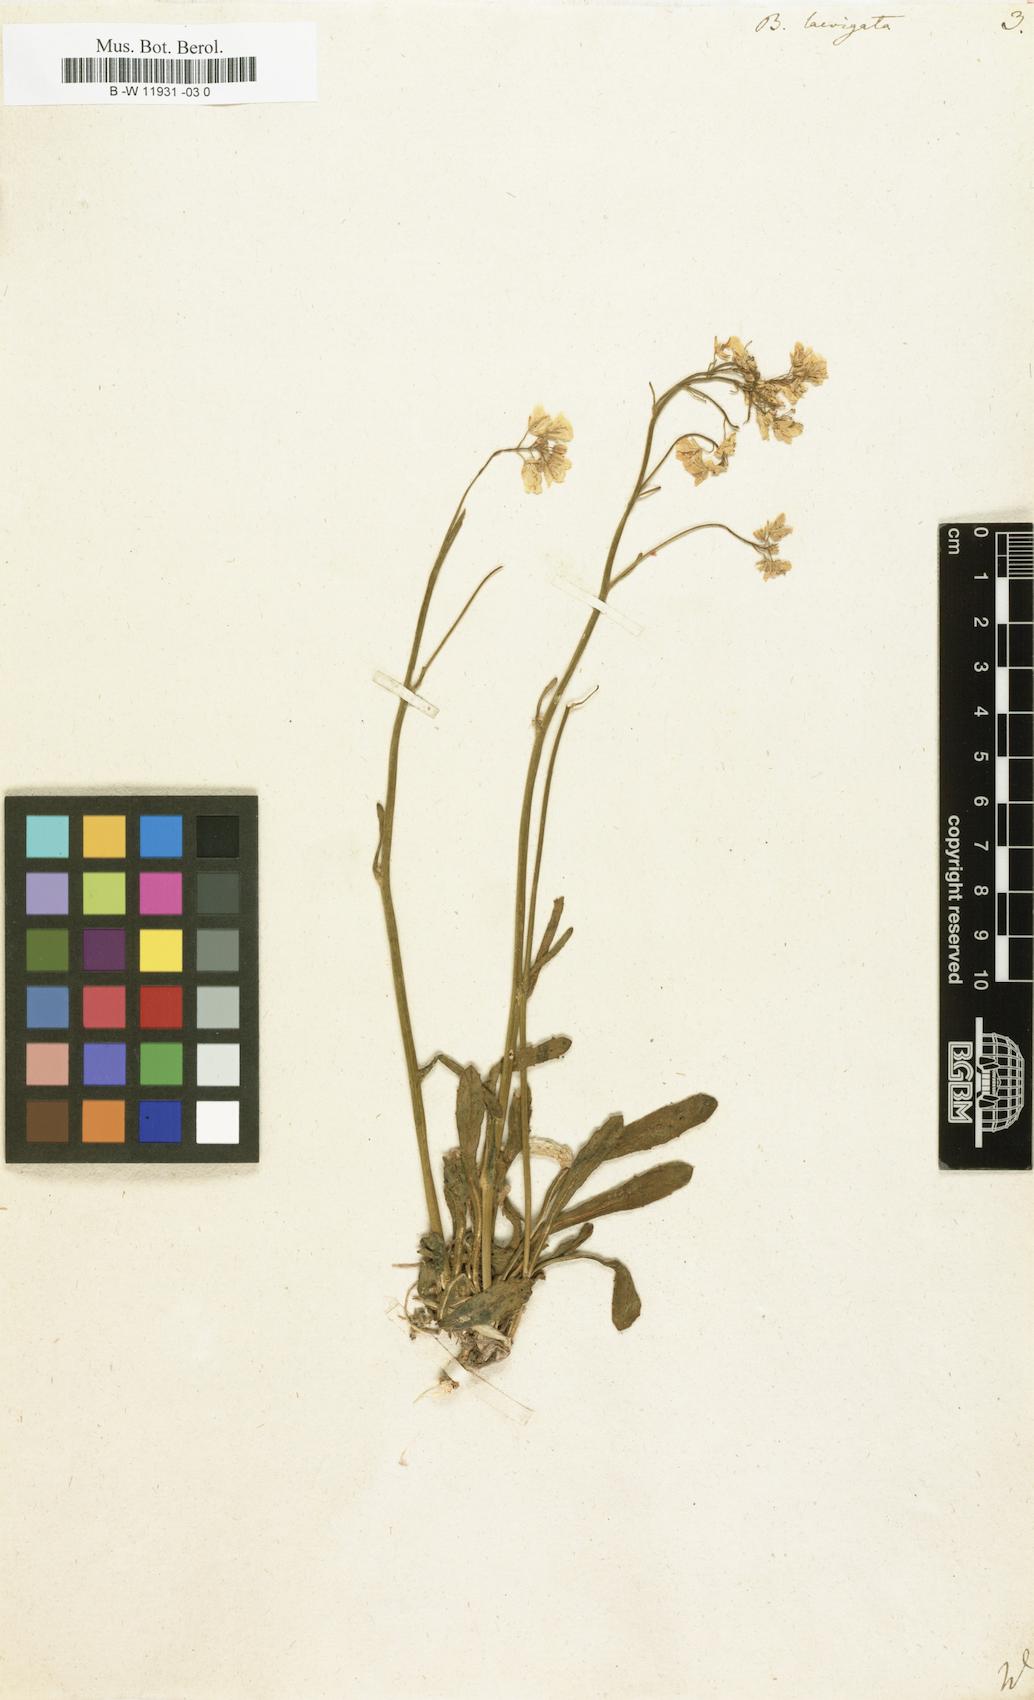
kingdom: Plantae
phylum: Tracheophyta
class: Magnoliopsida
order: Brassicales
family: Brassicaceae
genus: Biscutella
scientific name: Biscutella laevigata
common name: Buckler mustard
